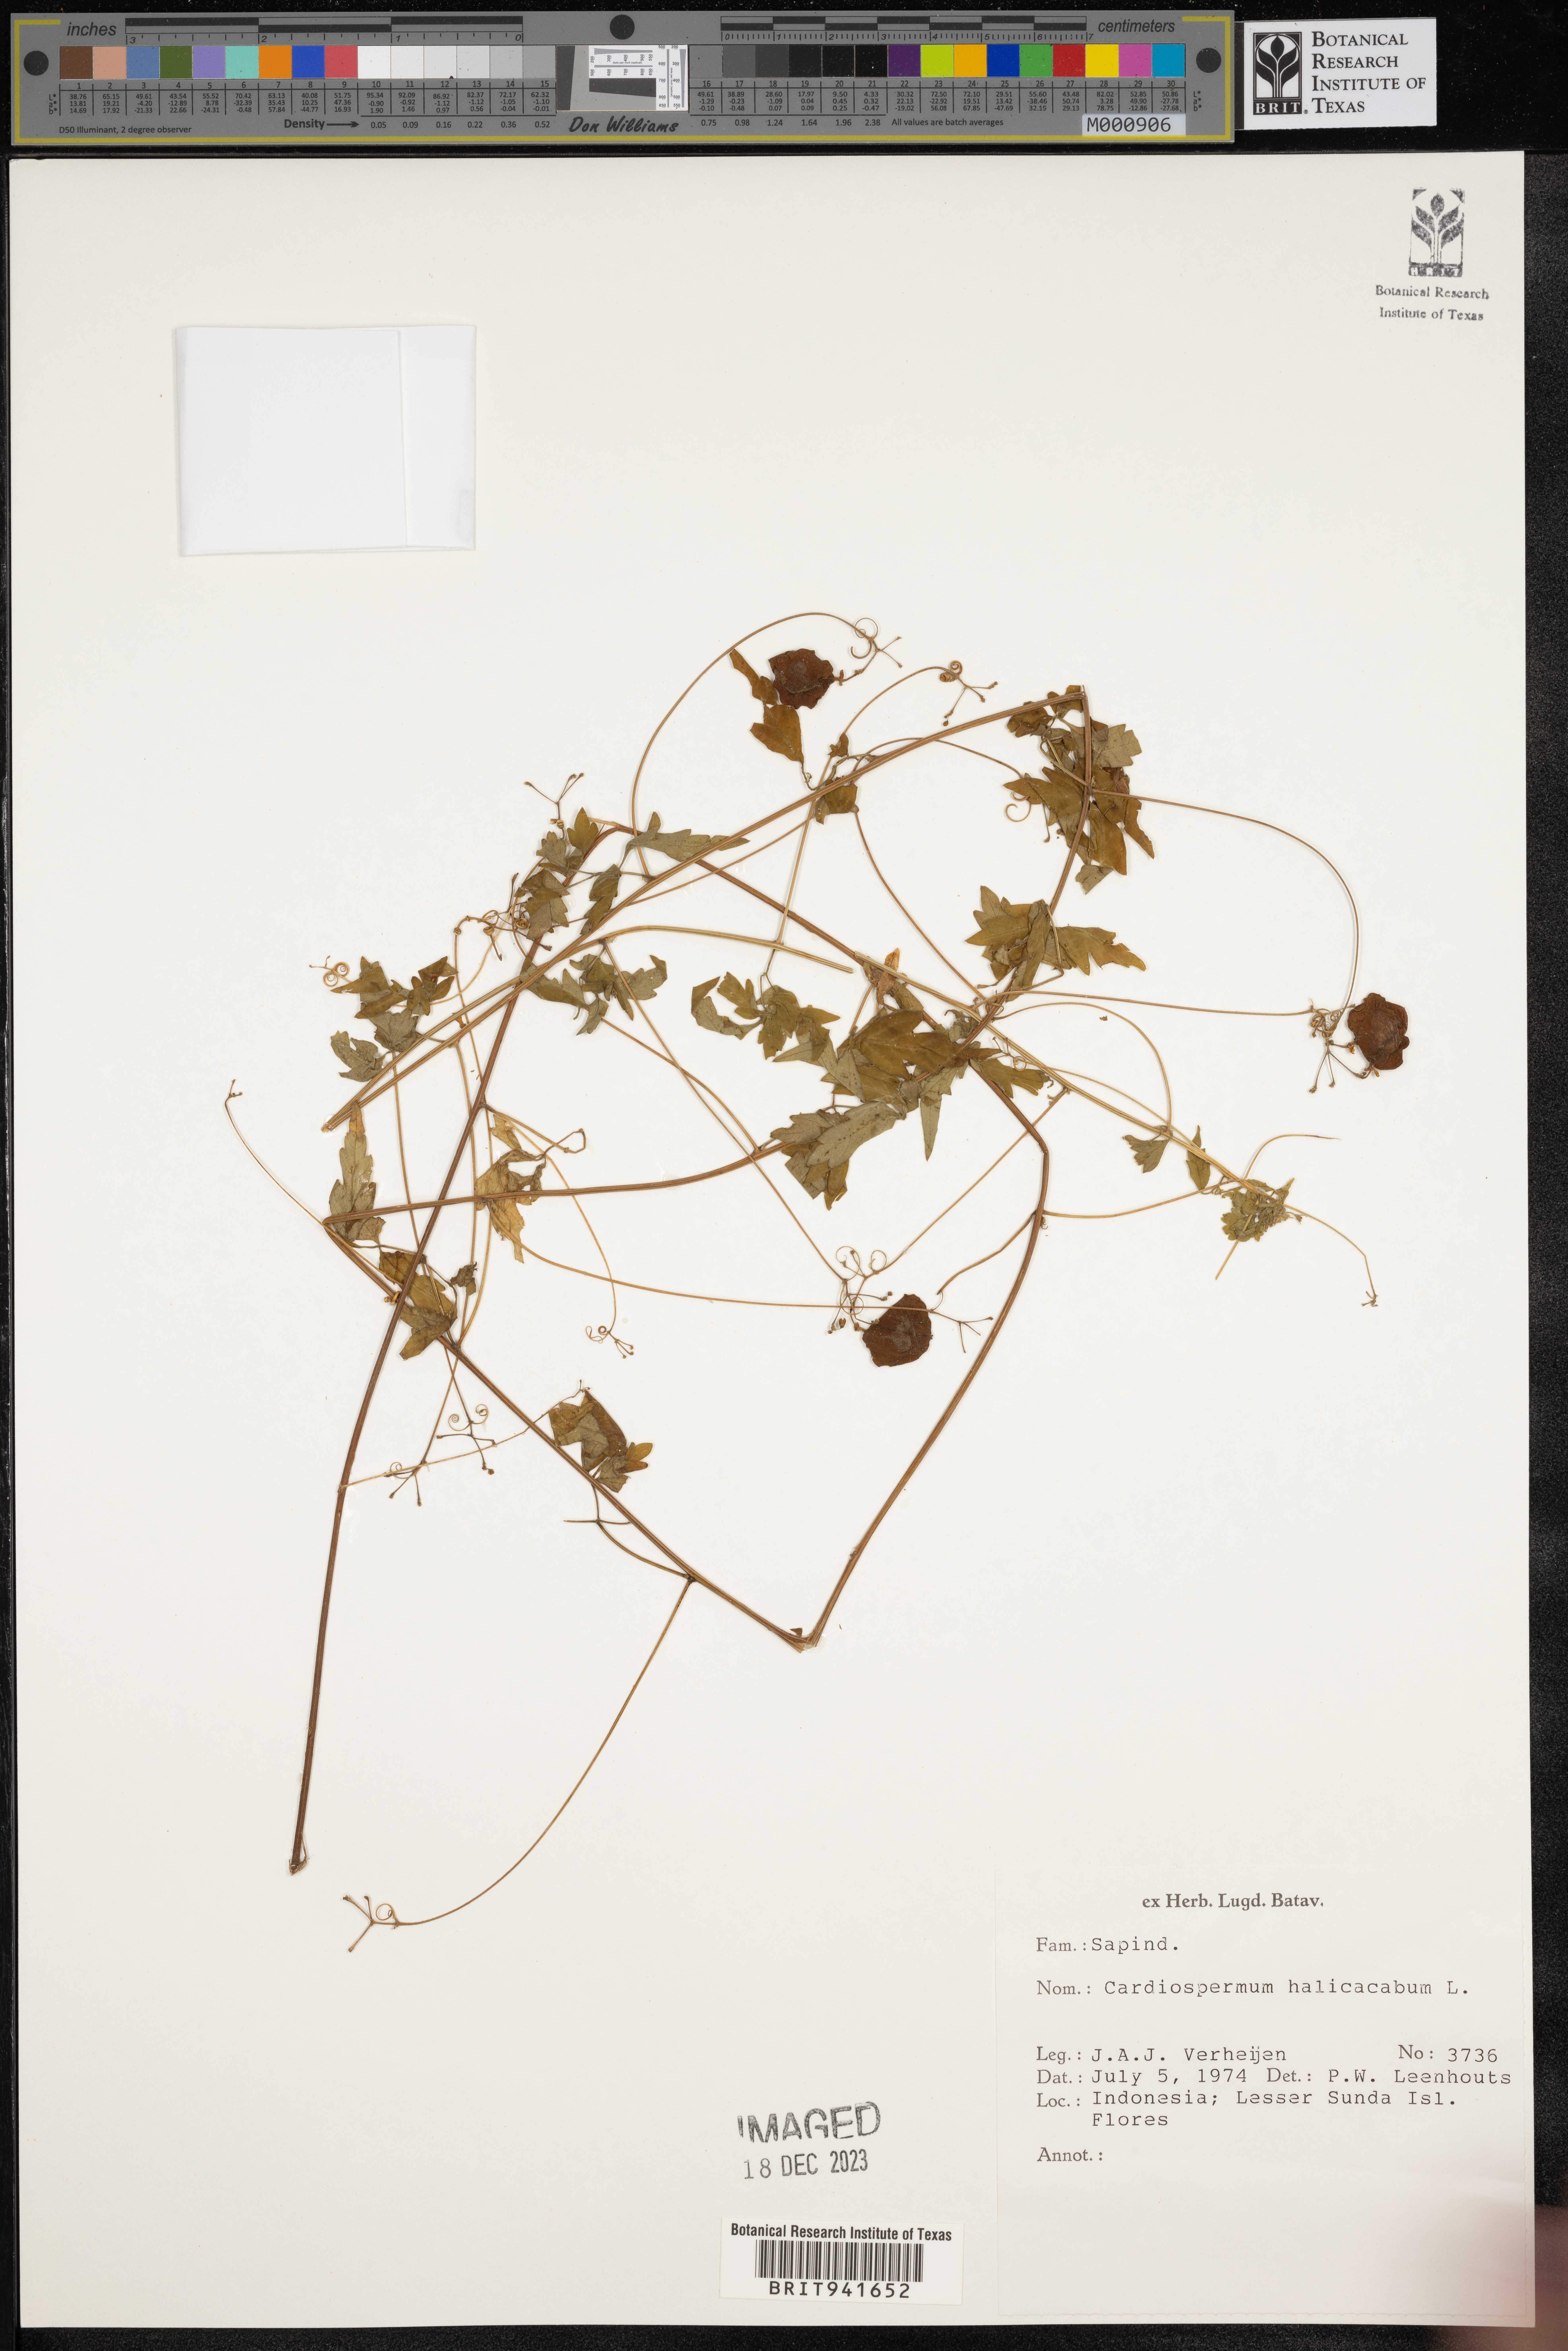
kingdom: Plantae
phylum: Tracheophyta
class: Magnoliopsida
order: Sapindales
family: Sapindaceae
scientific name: Sapindaceae
